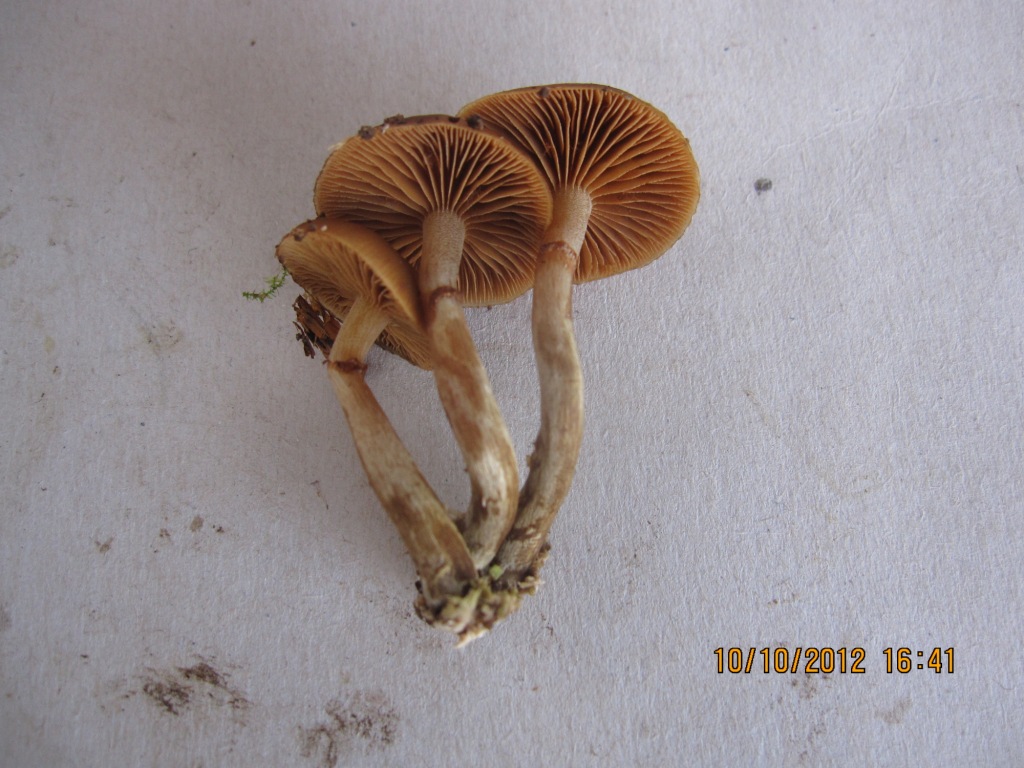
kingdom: Fungi
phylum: Basidiomycota
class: Agaricomycetes
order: Agaricales
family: Hymenogastraceae
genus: Galerina
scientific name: Galerina marginata
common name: randbæltet hjelmhat
